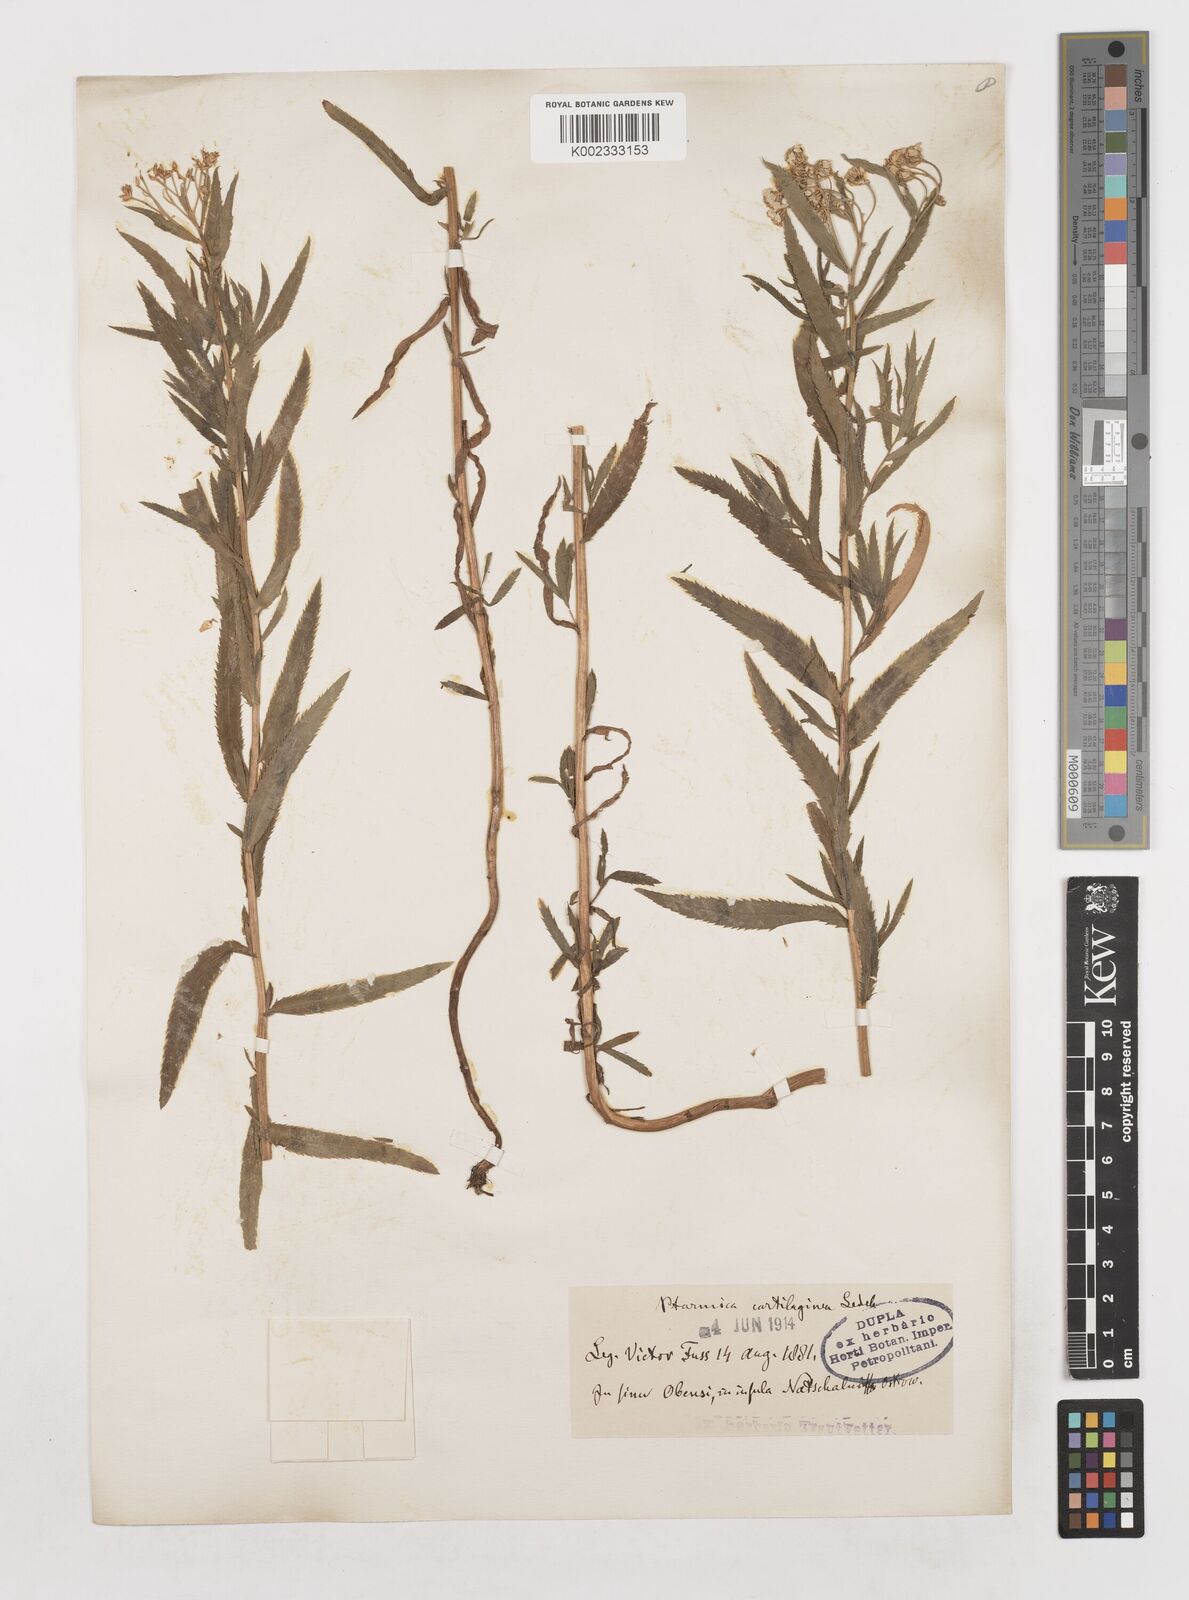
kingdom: Plantae
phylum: Tracheophyta
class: Magnoliopsida
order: Asterales
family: Asteraceae
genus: Achillea
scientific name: Achillea salicifolia
